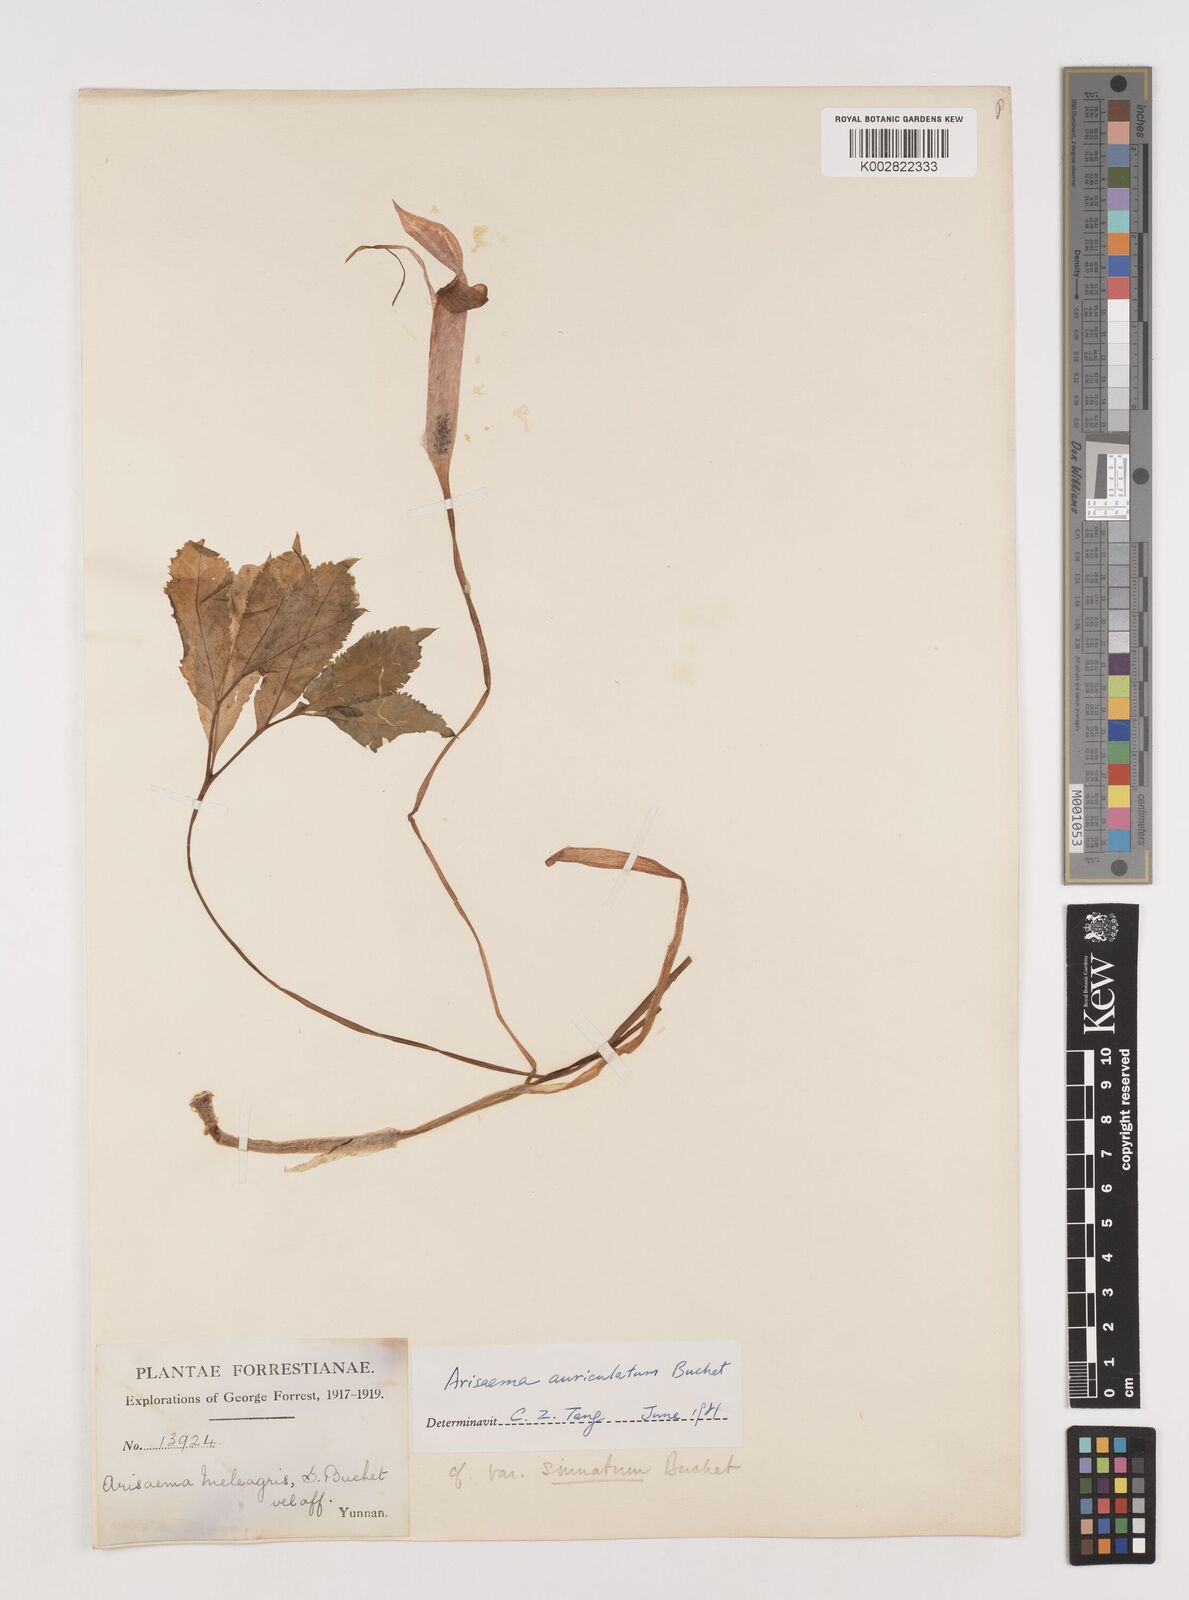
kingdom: Plantae
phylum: Tracheophyta
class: Liliopsida
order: Alismatales
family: Araceae
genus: Arisaema
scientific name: Arisaema auriculatum
